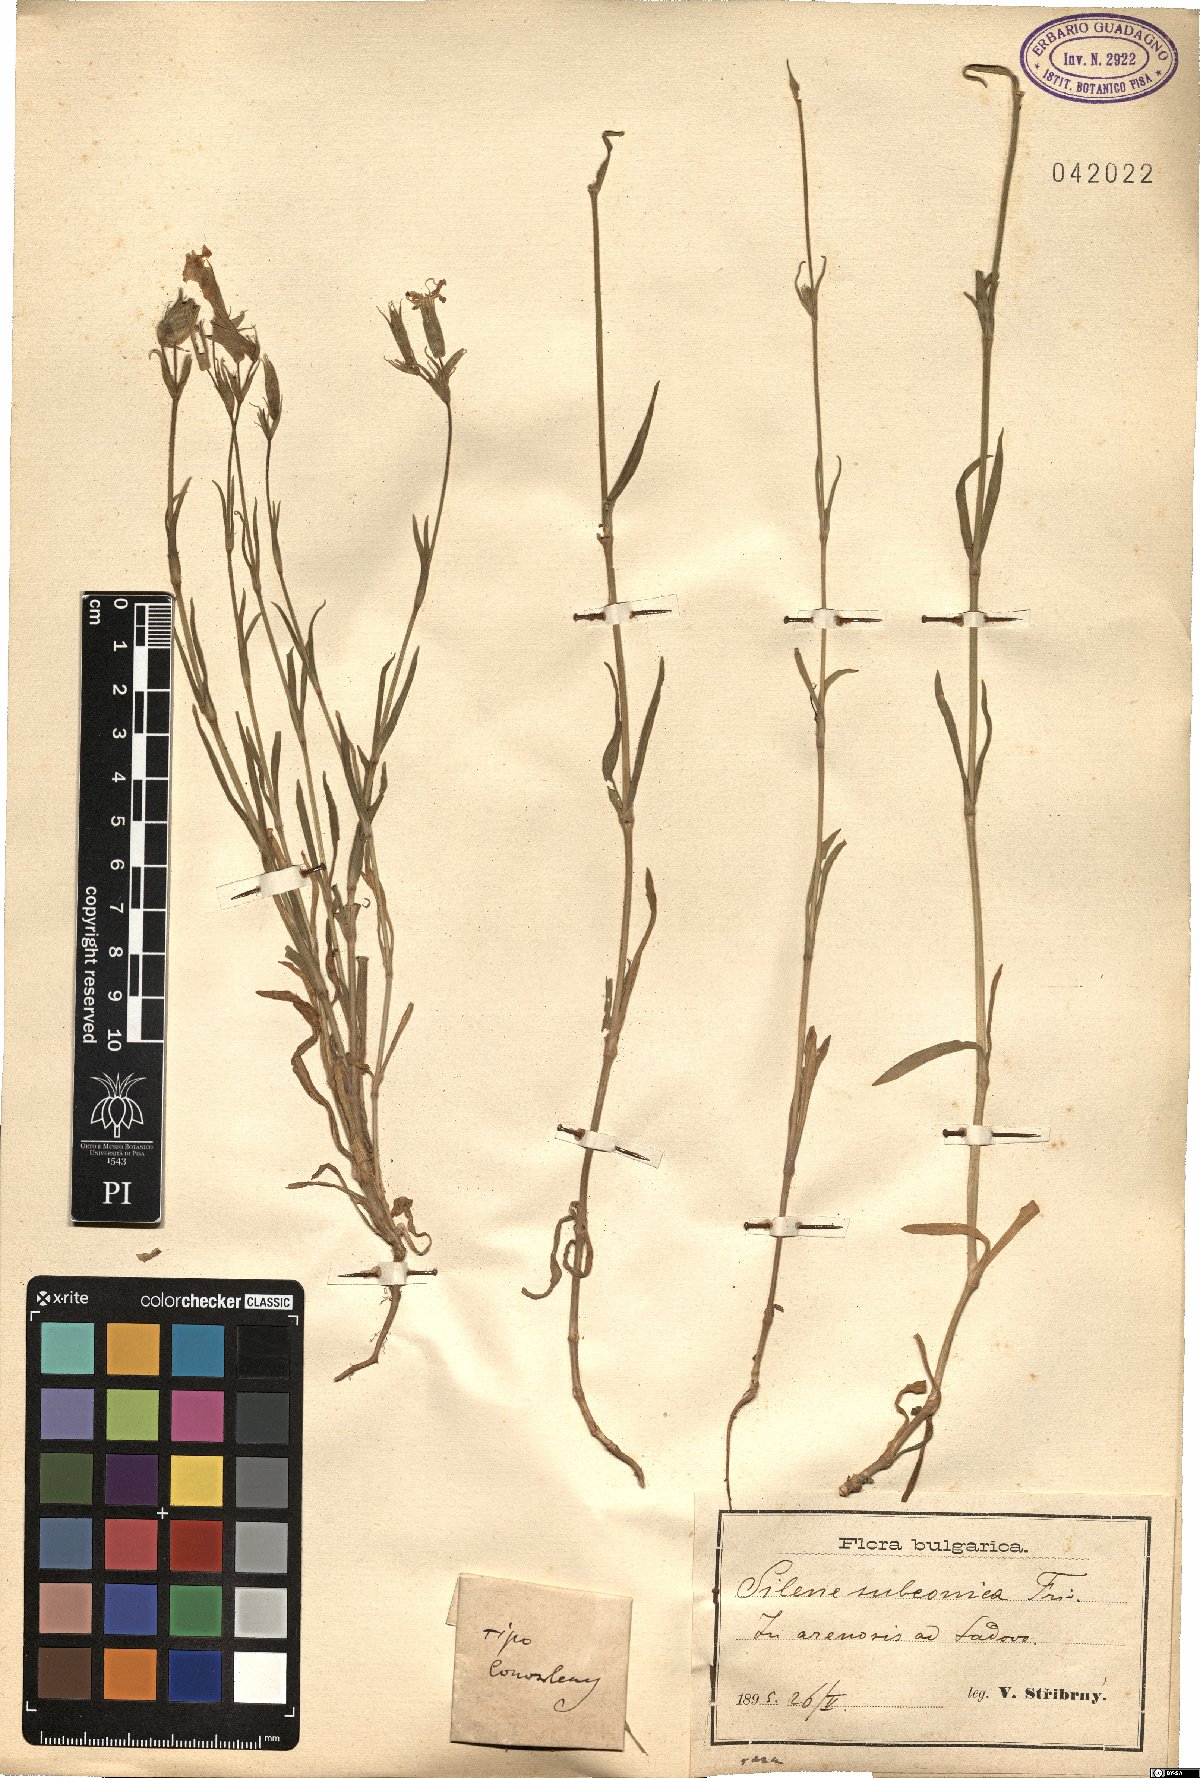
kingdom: Plantae
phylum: Tracheophyta
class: Magnoliopsida
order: Caryophyllales
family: Caryophyllaceae
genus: Silene
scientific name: Silene subconica
